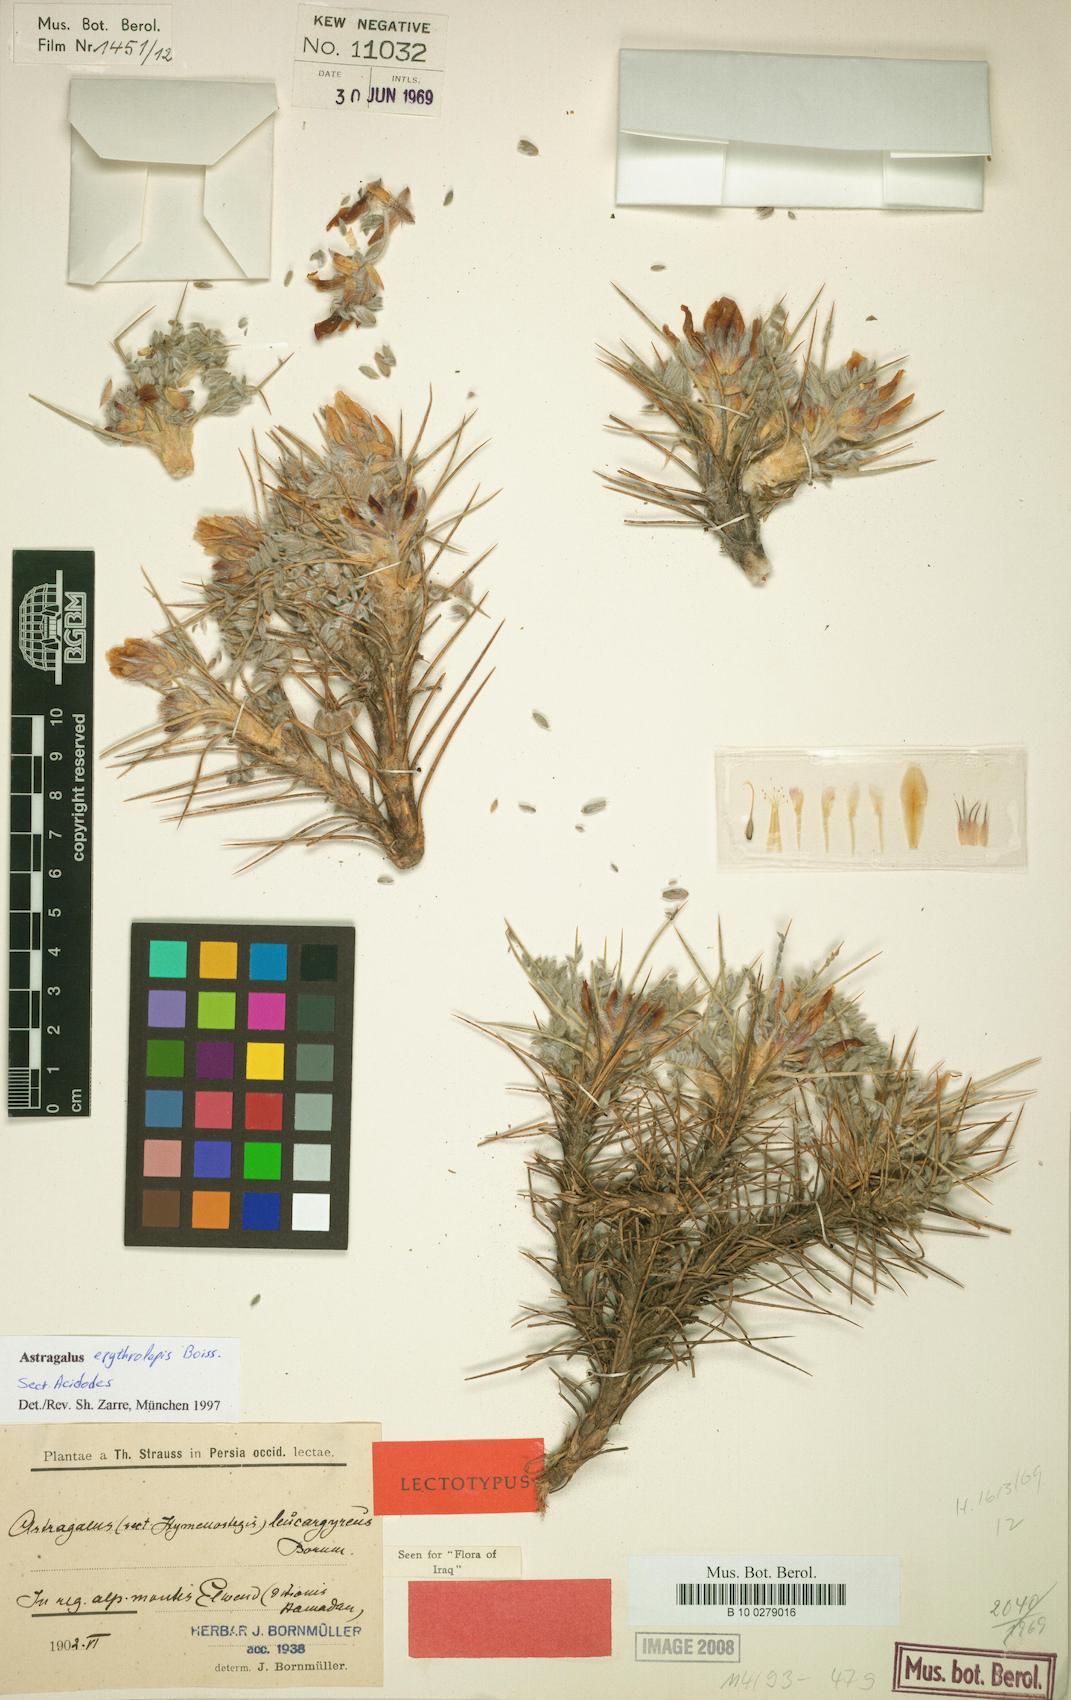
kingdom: Plantae
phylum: Tracheophyta
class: Magnoliopsida
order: Fabales
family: Fabaceae
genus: Astragalus
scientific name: Astragalus erythrolepis
